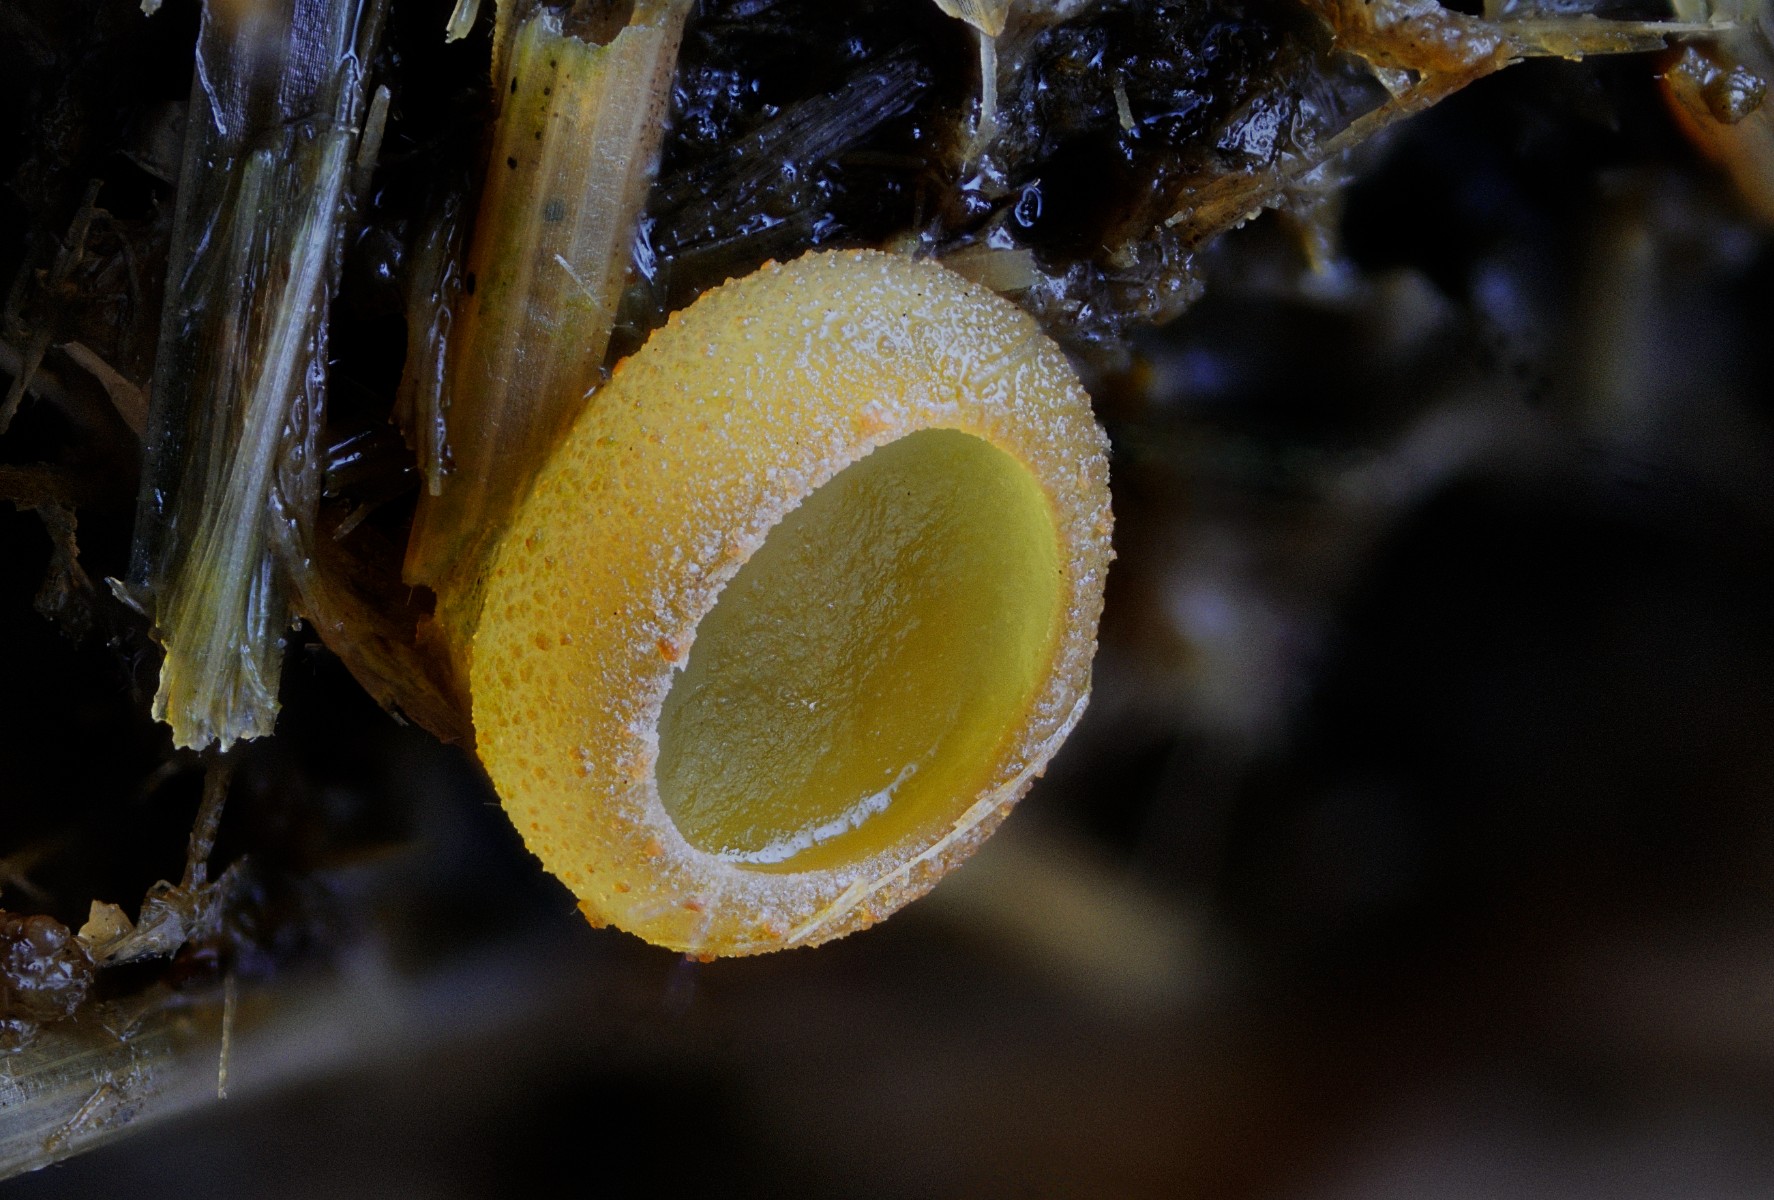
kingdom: Fungi
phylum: Ascomycota
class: Pezizomycetes
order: Pezizales
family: Ascobolaceae
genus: Ascobolus
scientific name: Ascobolus furfuraceus
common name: almindelig prikbæger
